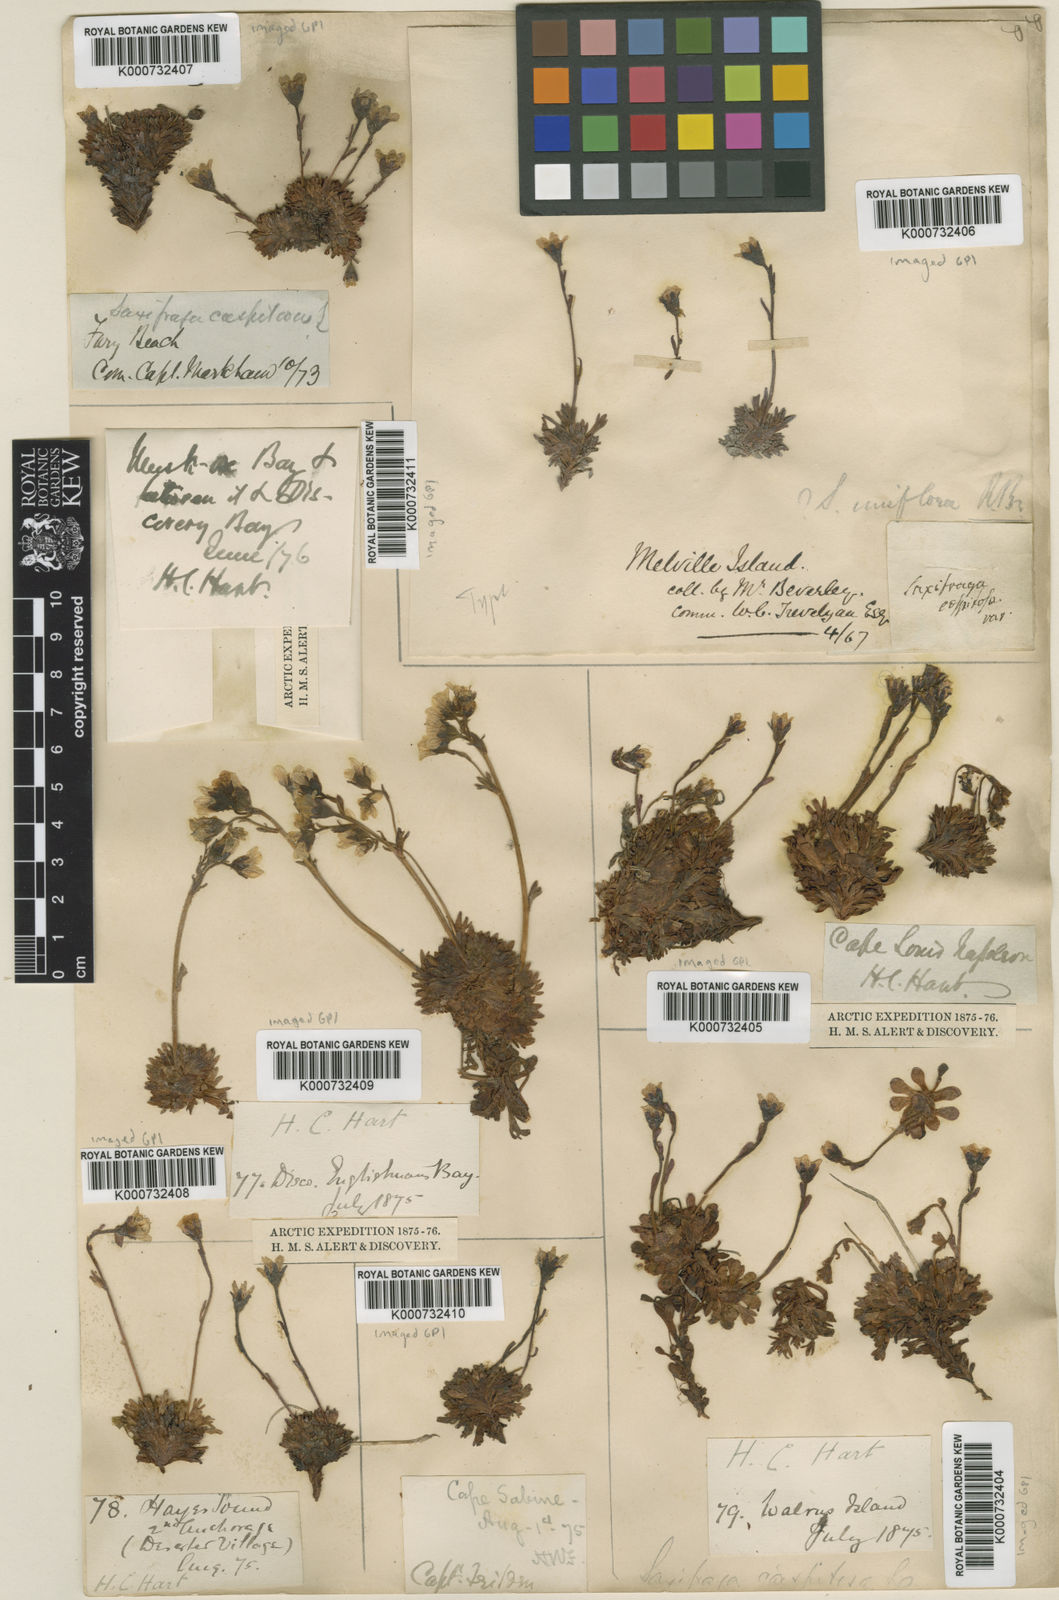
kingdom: Plantae
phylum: Tracheophyta
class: Magnoliopsida
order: Saxifragales
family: Saxifragaceae
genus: Saxifraga
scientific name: Saxifraga cespitosa
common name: Tufted saxifrage
